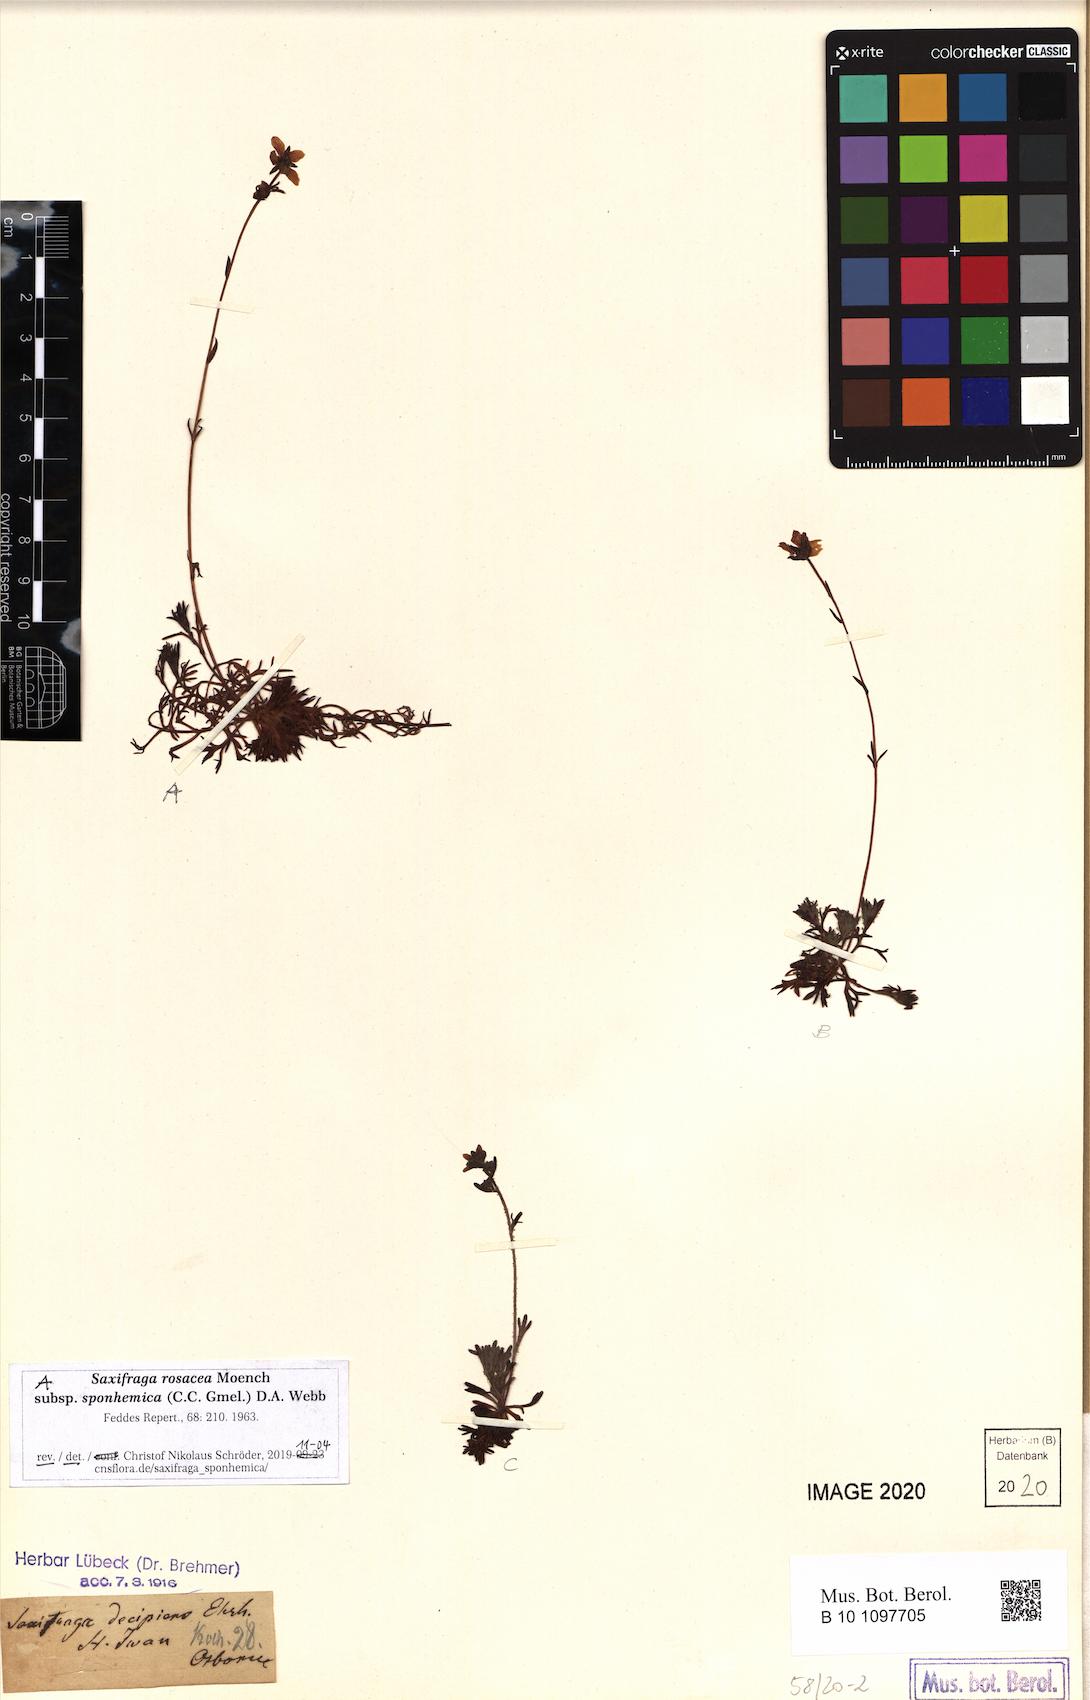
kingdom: Plantae
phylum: Tracheophyta
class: Magnoliopsida
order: Saxifragales
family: Saxifragaceae
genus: Saxifraga
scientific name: Saxifraga rosacea
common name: Irish saxifrage
